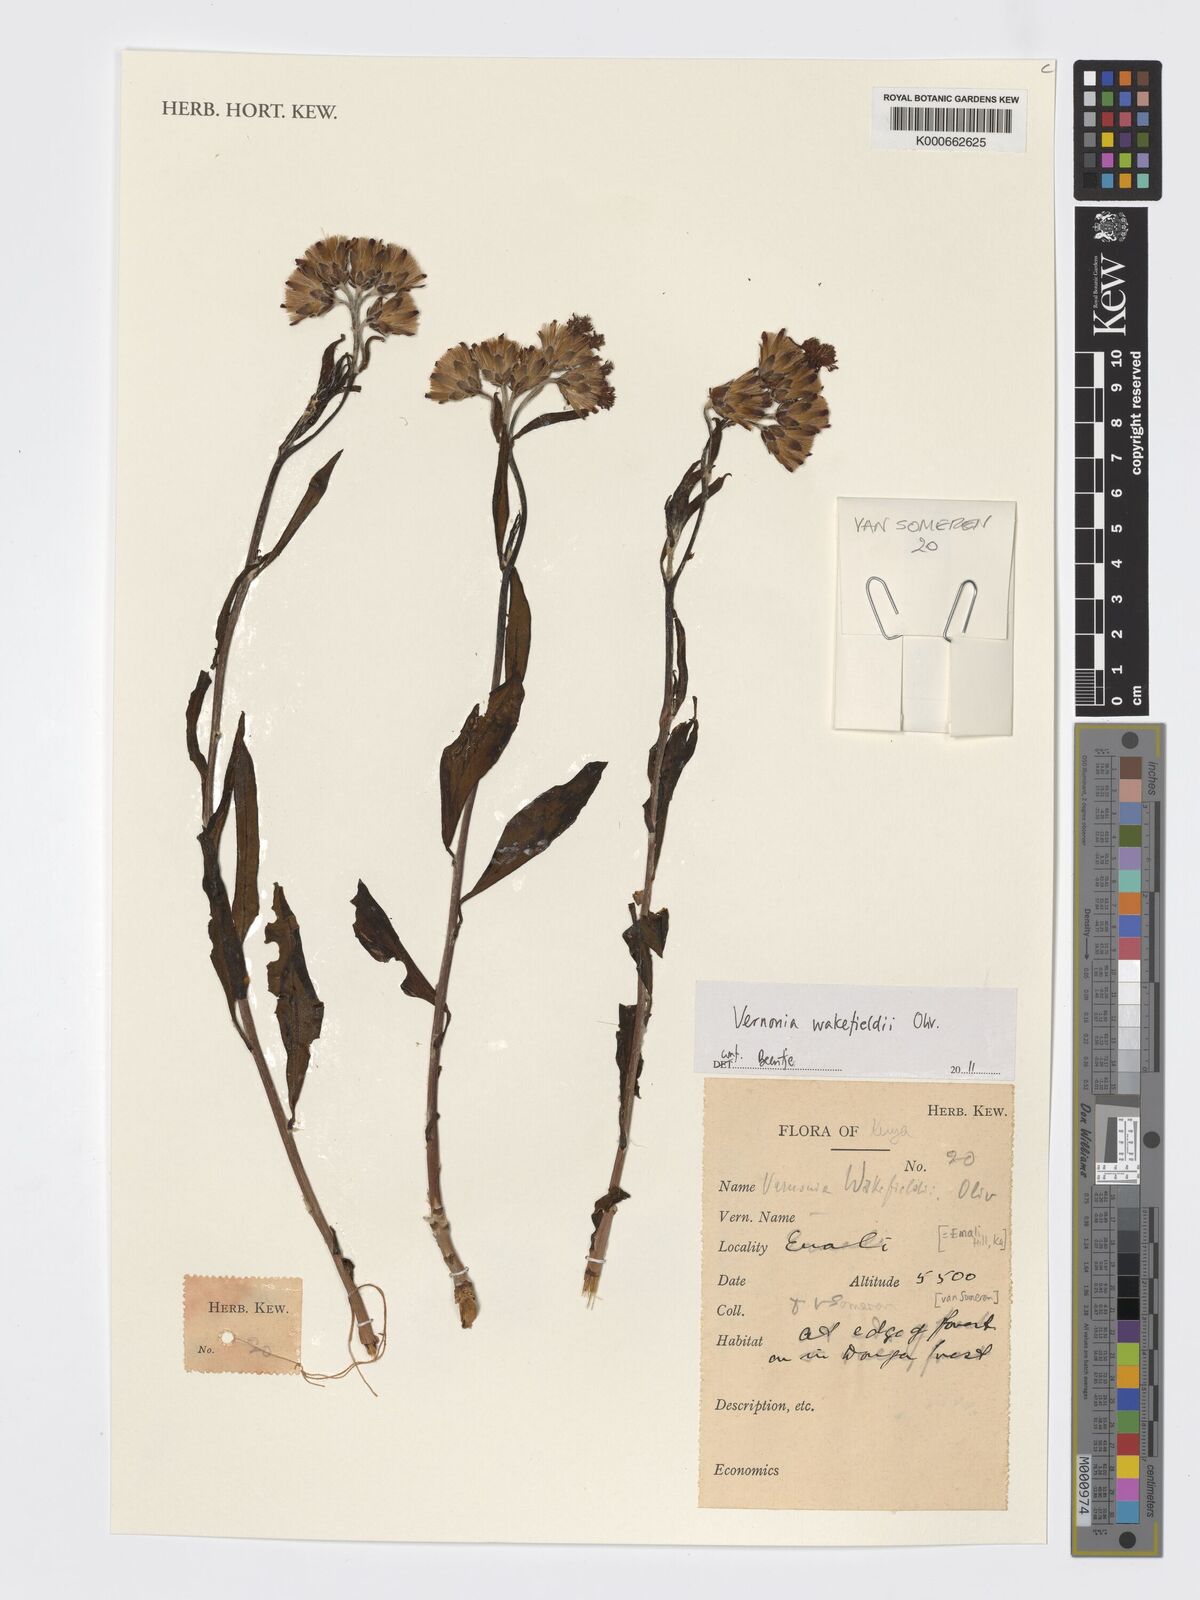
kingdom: Plantae
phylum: Tracheophyta
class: Magnoliopsida
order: Asterales
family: Asteraceae
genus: Vernonia
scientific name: Vernonia wakefieldii
